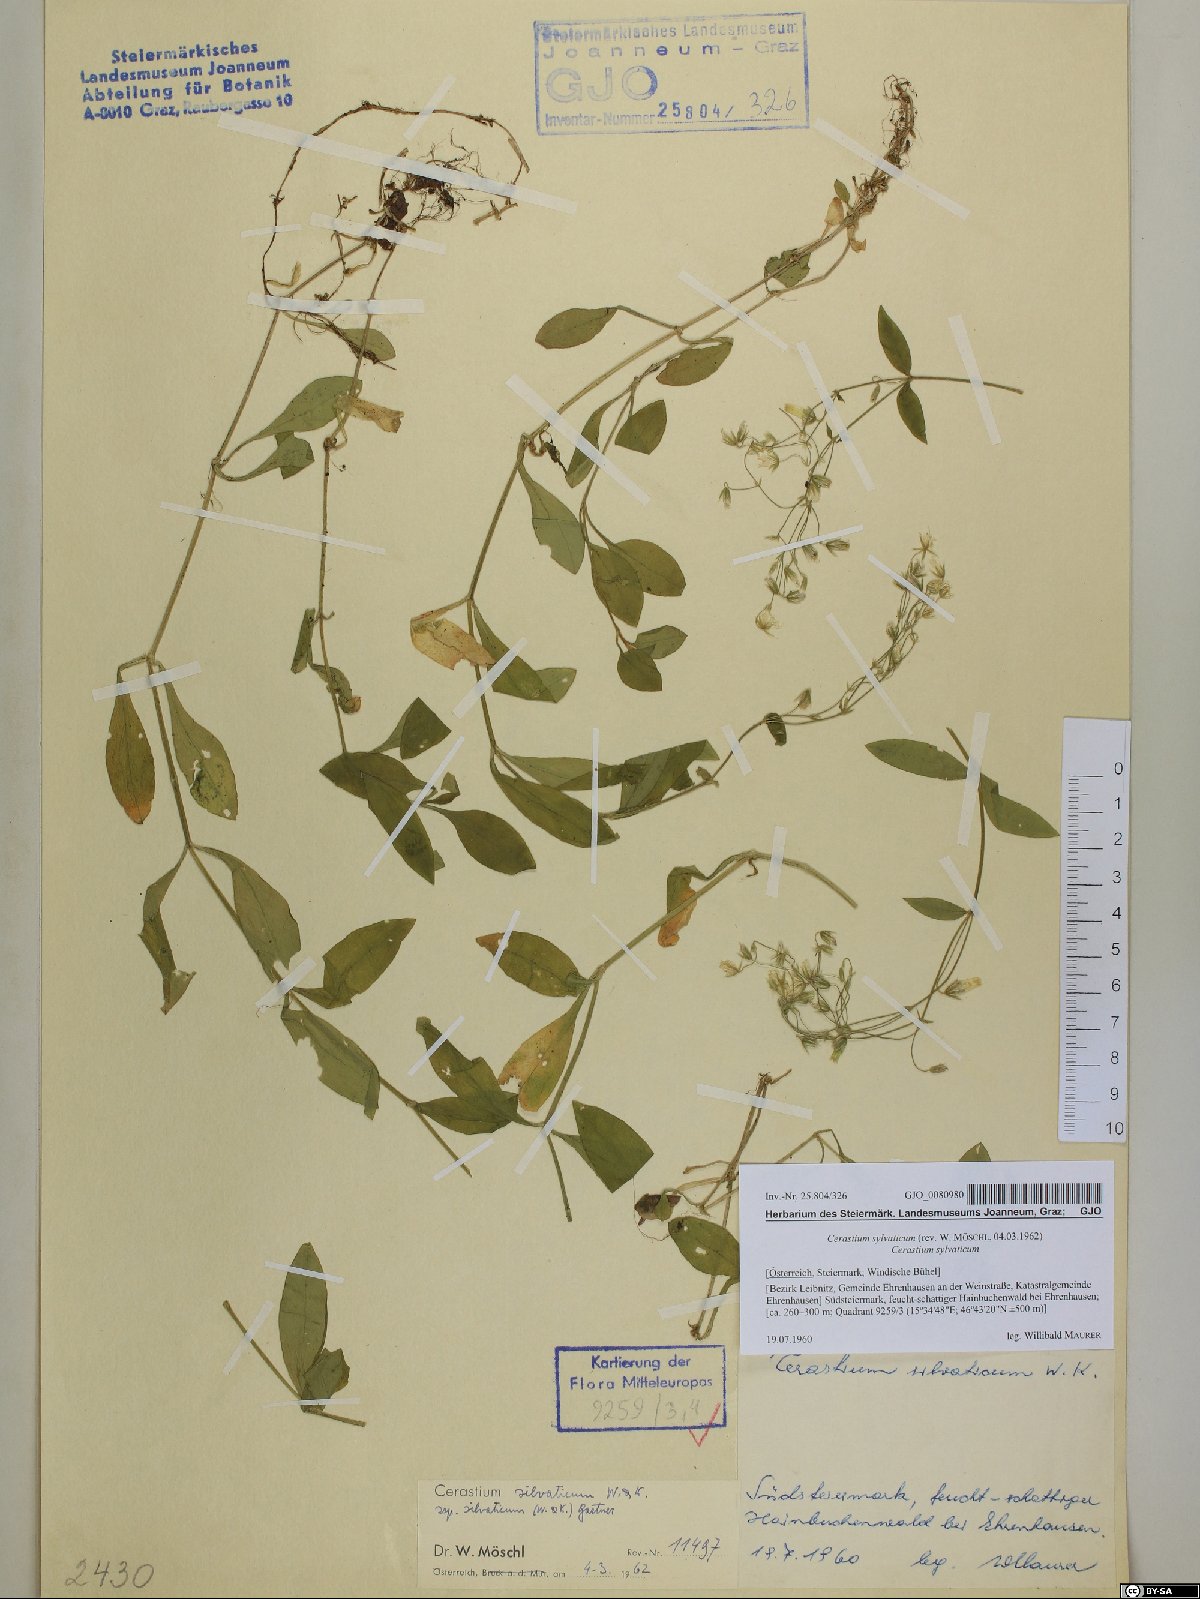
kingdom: Plantae
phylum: Tracheophyta
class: Magnoliopsida
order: Caryophyllales
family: Caryophyllaceae
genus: Cerastium
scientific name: Cerastium sylvaticum
